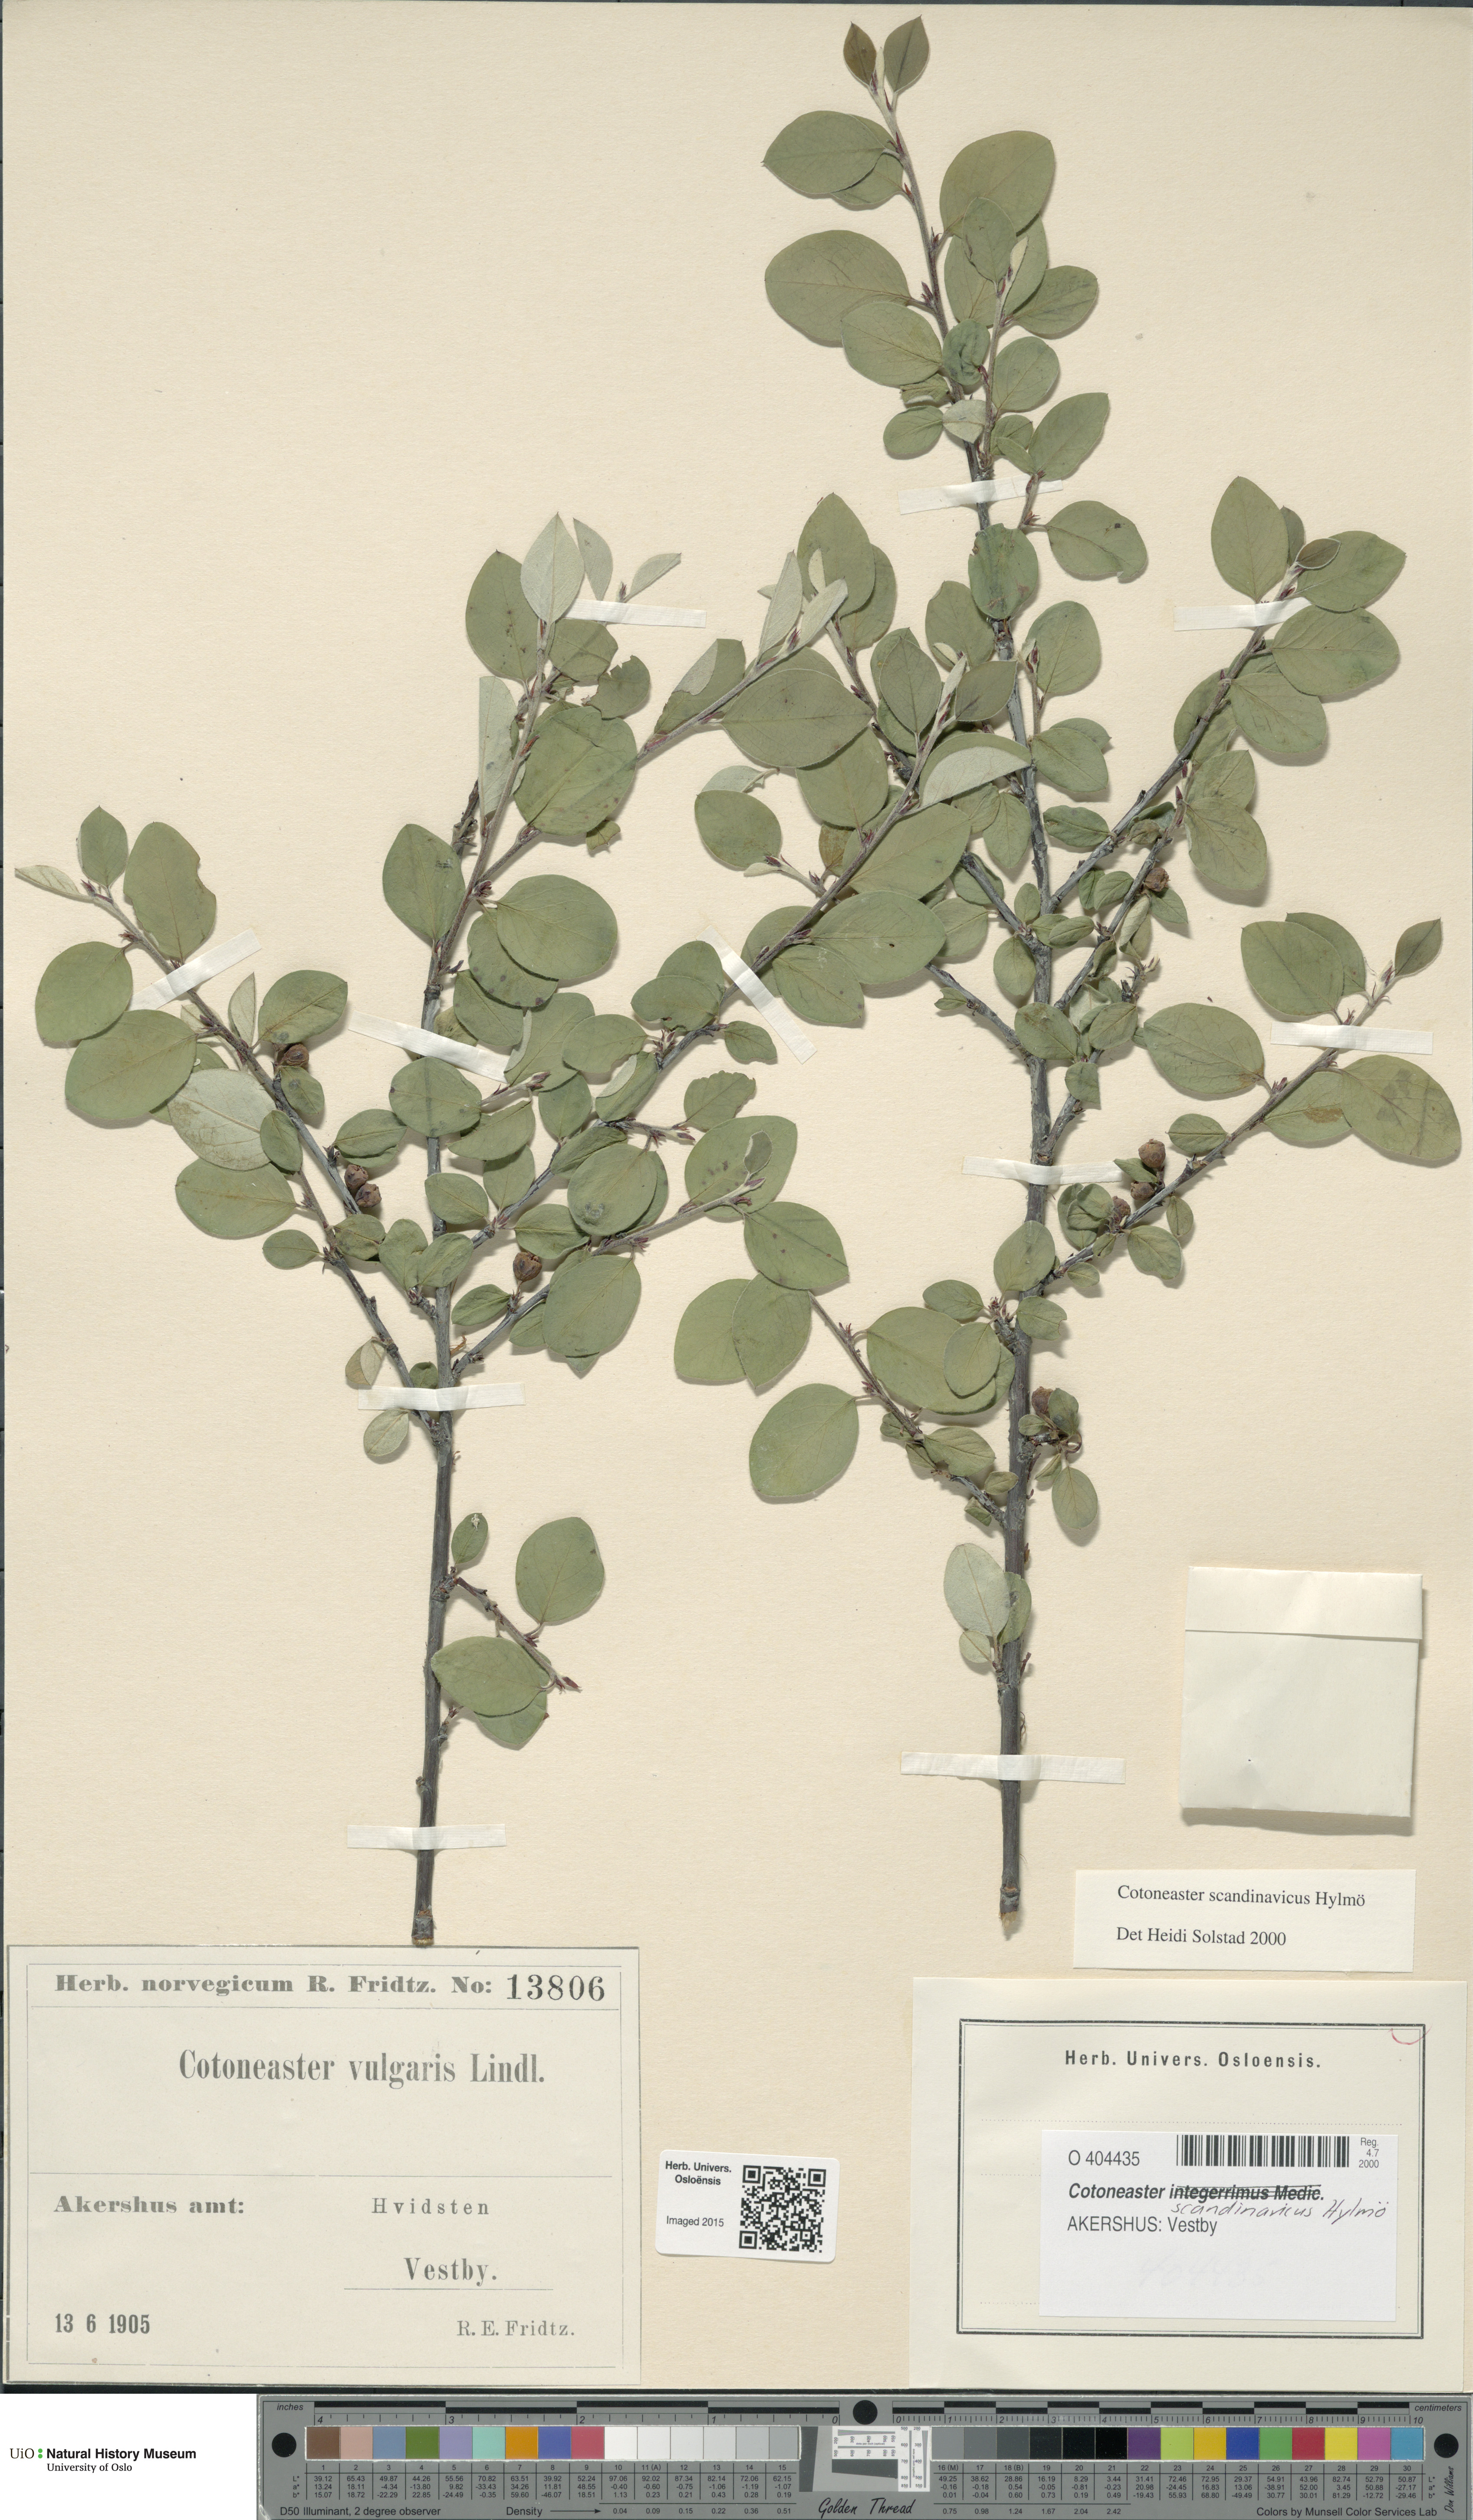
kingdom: Plantae
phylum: Tracheophyta
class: Magnoliopsida
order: Rosales
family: Rosaceae
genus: Cotoneaster
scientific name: Cotoneaster integerrimus
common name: Wild cotoneaster
